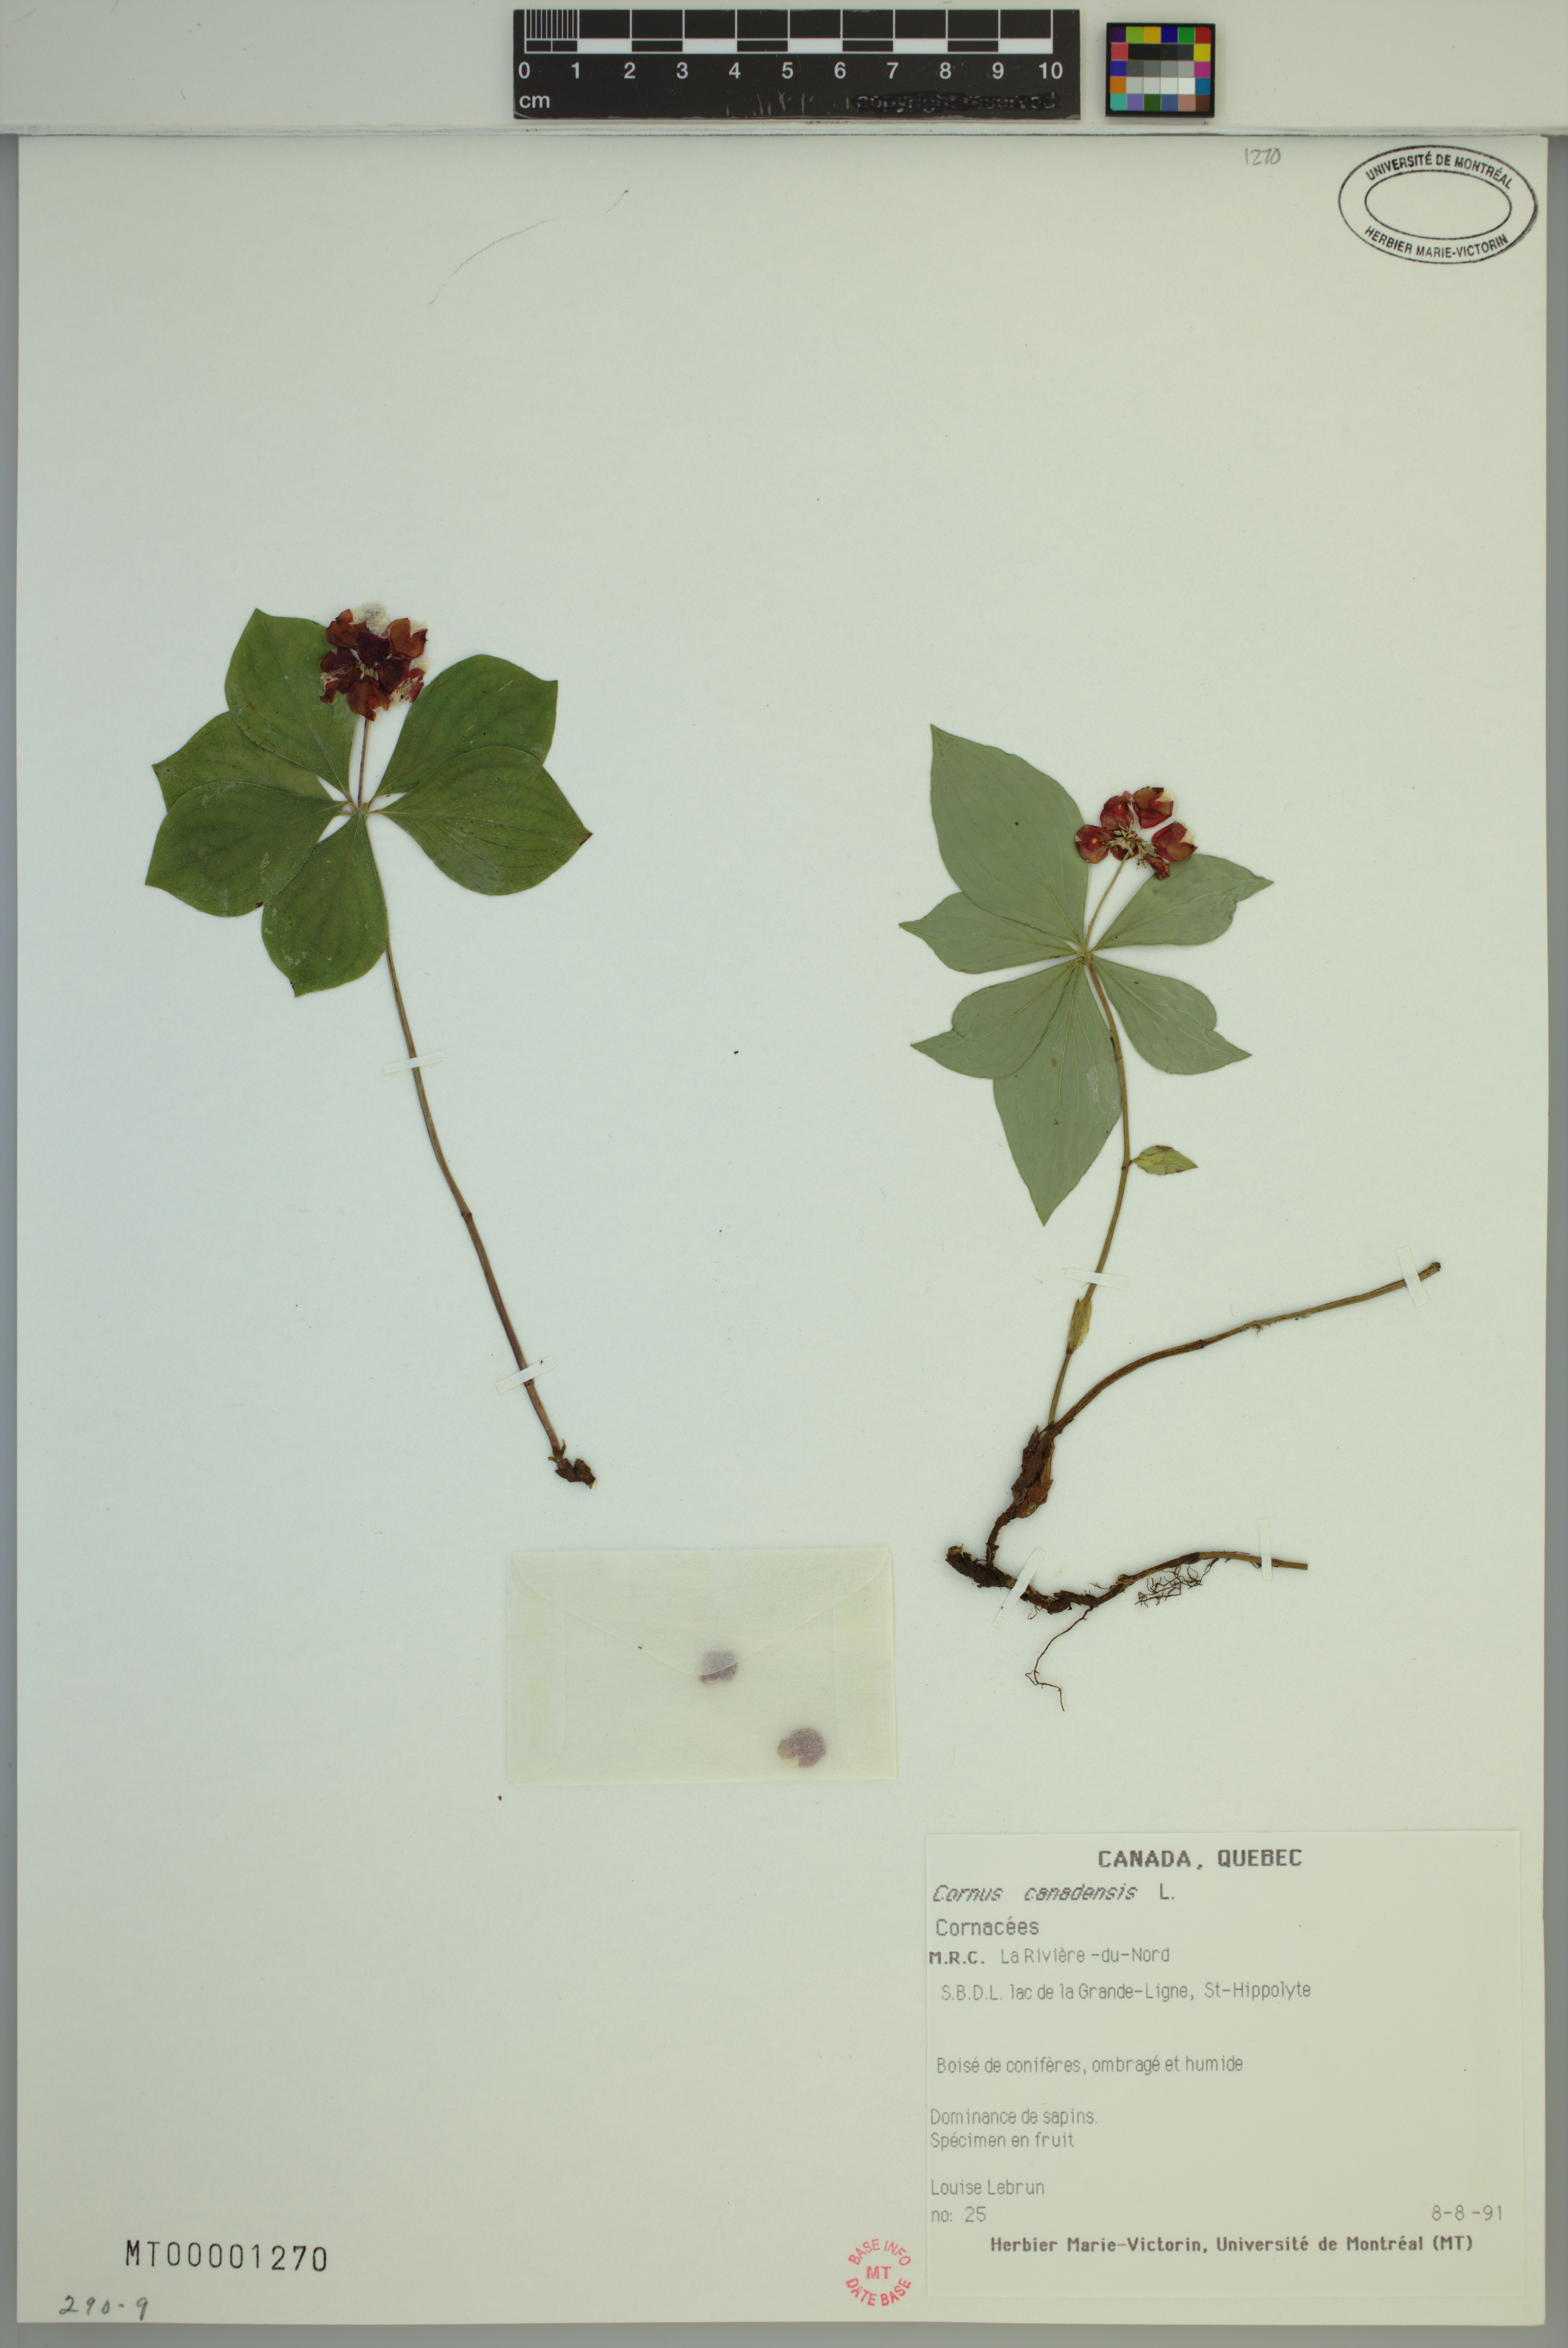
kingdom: Plantae
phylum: Tracheophyta
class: Magnoliopsida
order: Cornales
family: Cornaceae
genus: Cornus
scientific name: Cornus canadensis
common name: Creeping dogwood
